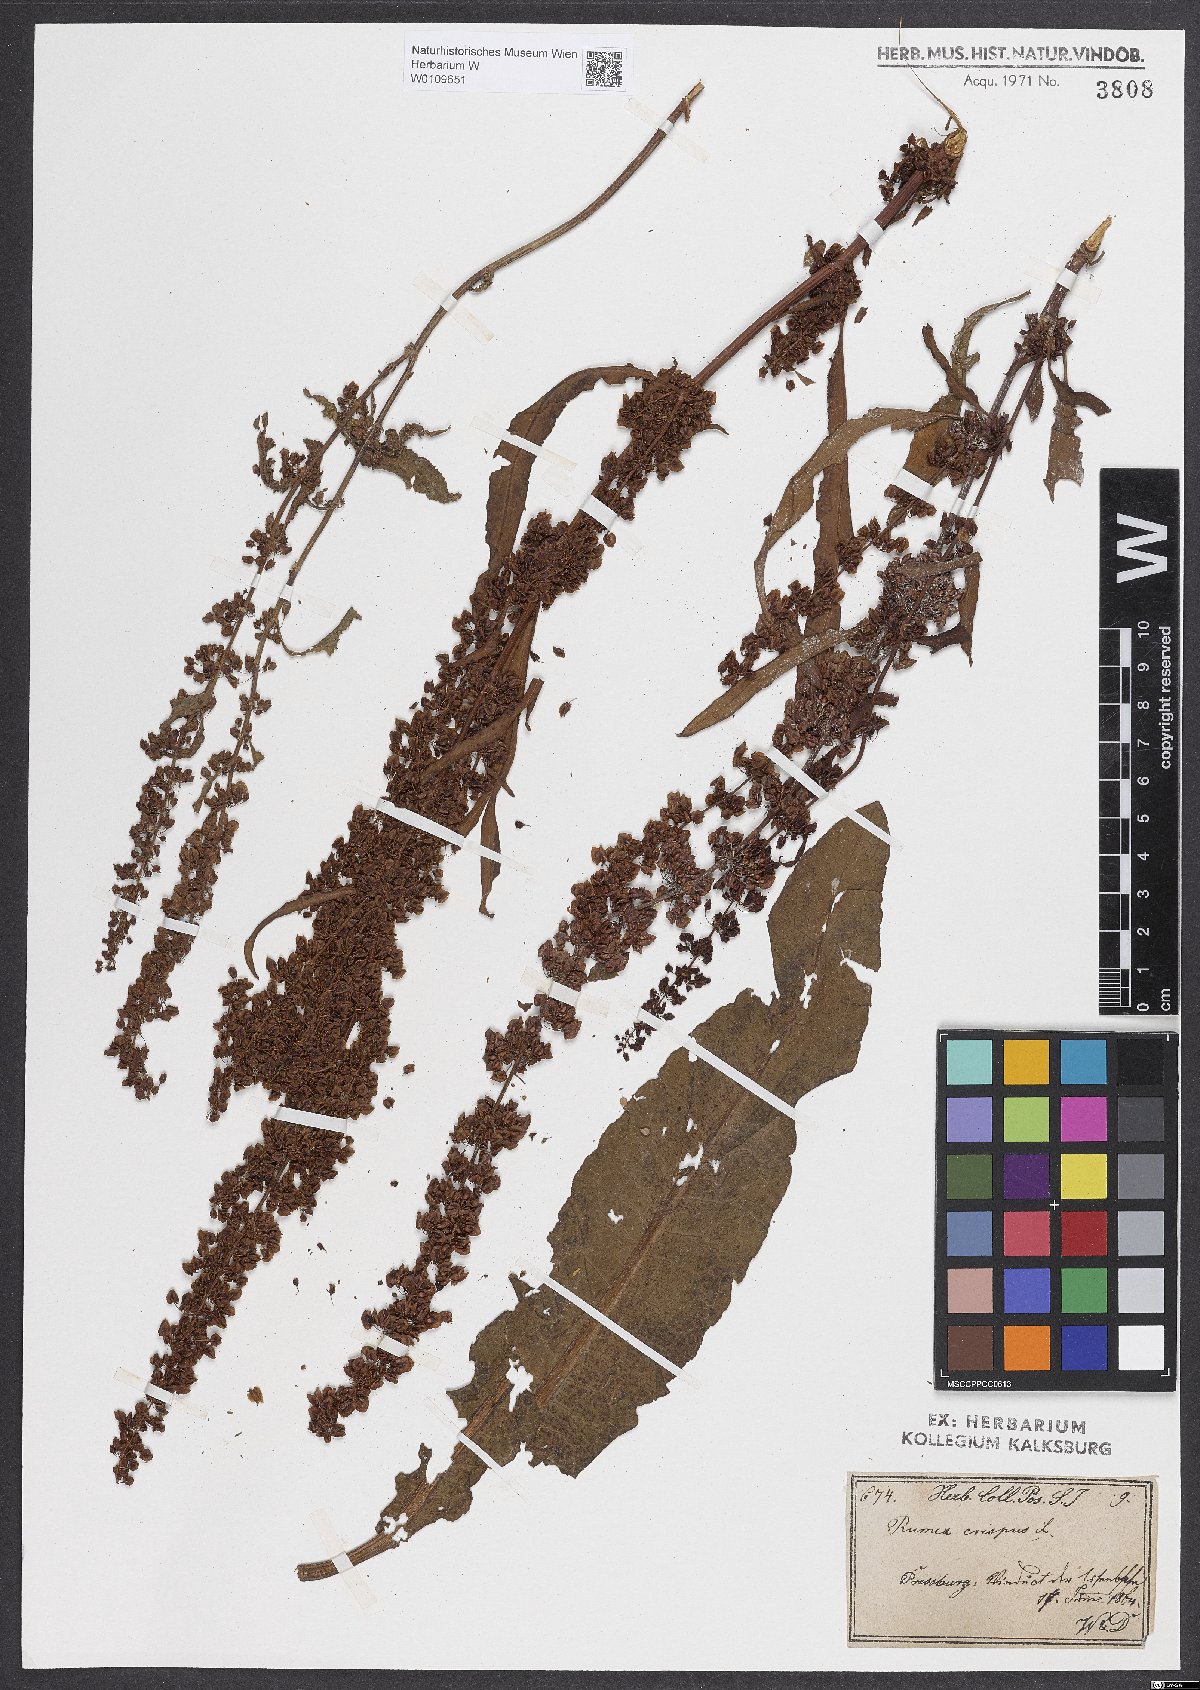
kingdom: Plantae
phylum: Tracheophyta
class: Magnoliopsida
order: Caryophyllales
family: Polygonaceae
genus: Rumex
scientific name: Rumex crispus
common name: Curled dock
